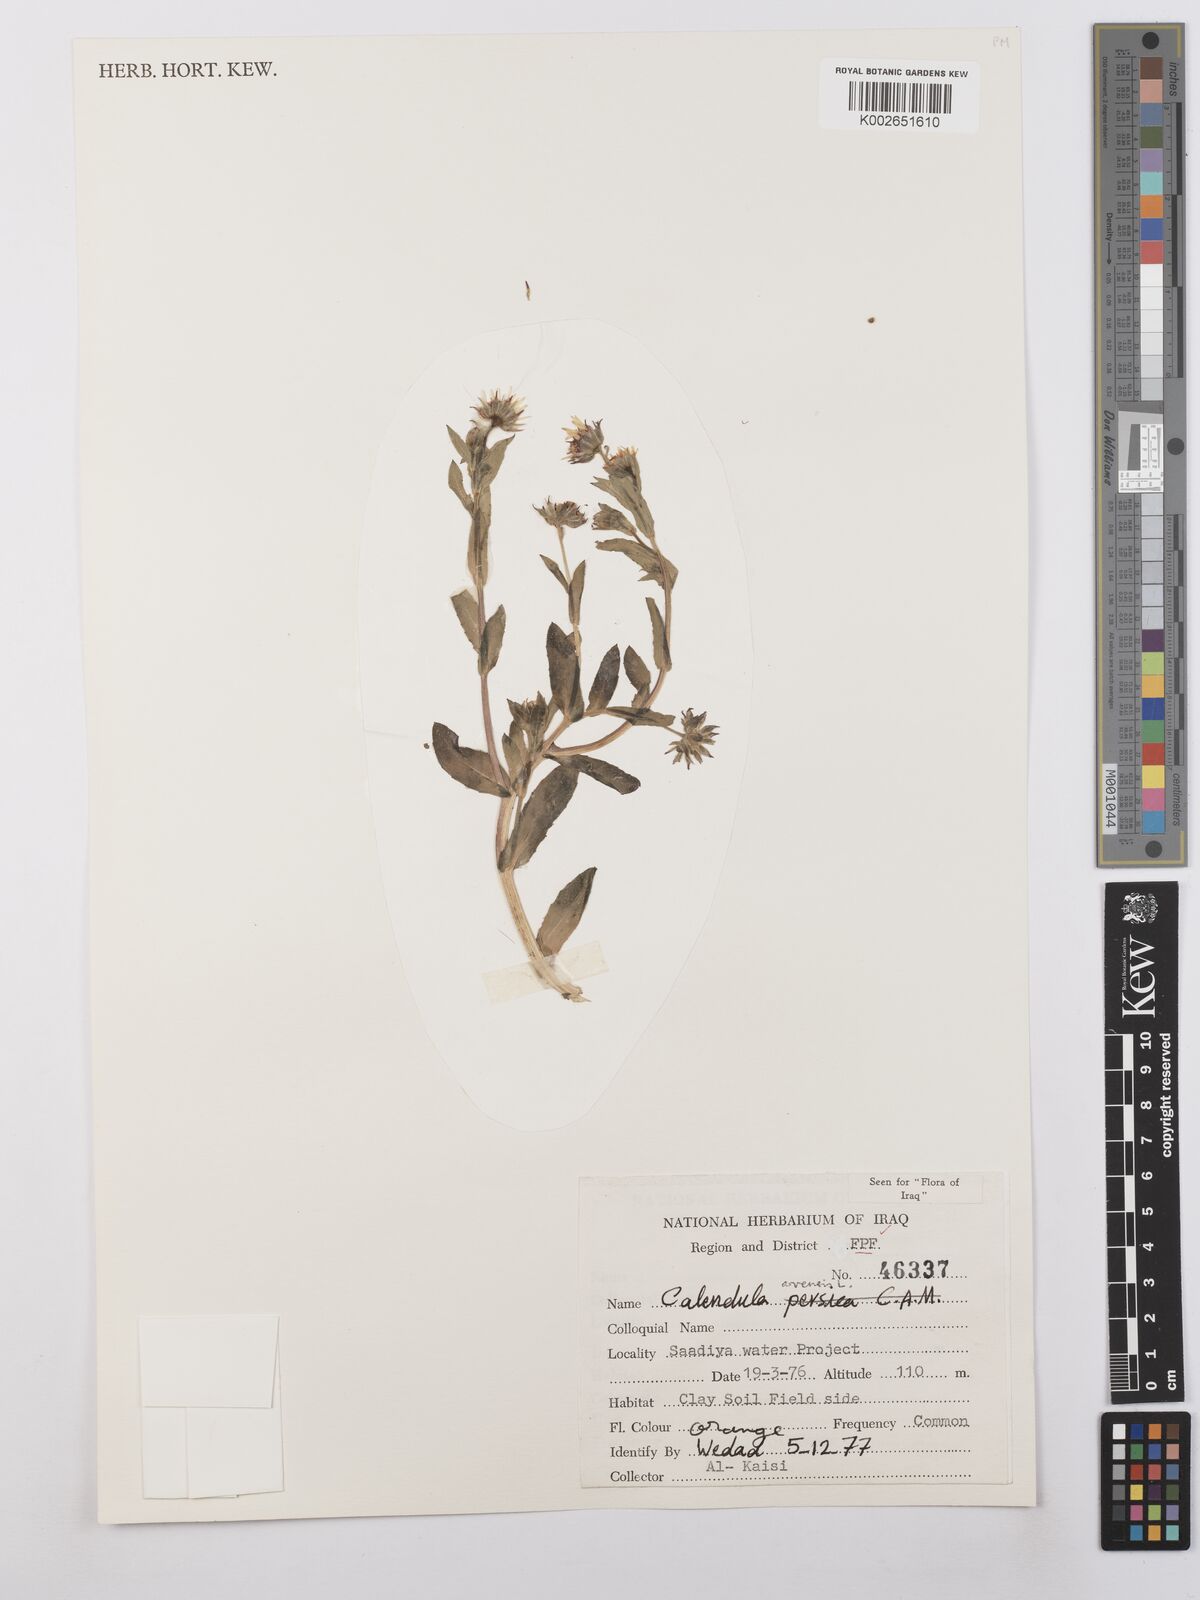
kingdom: Plantae
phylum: Tracheophyta
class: Magnoliopsida
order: Asterales
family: Asteraceae
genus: Calendula
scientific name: Calendula arvensis
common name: Field marigold
